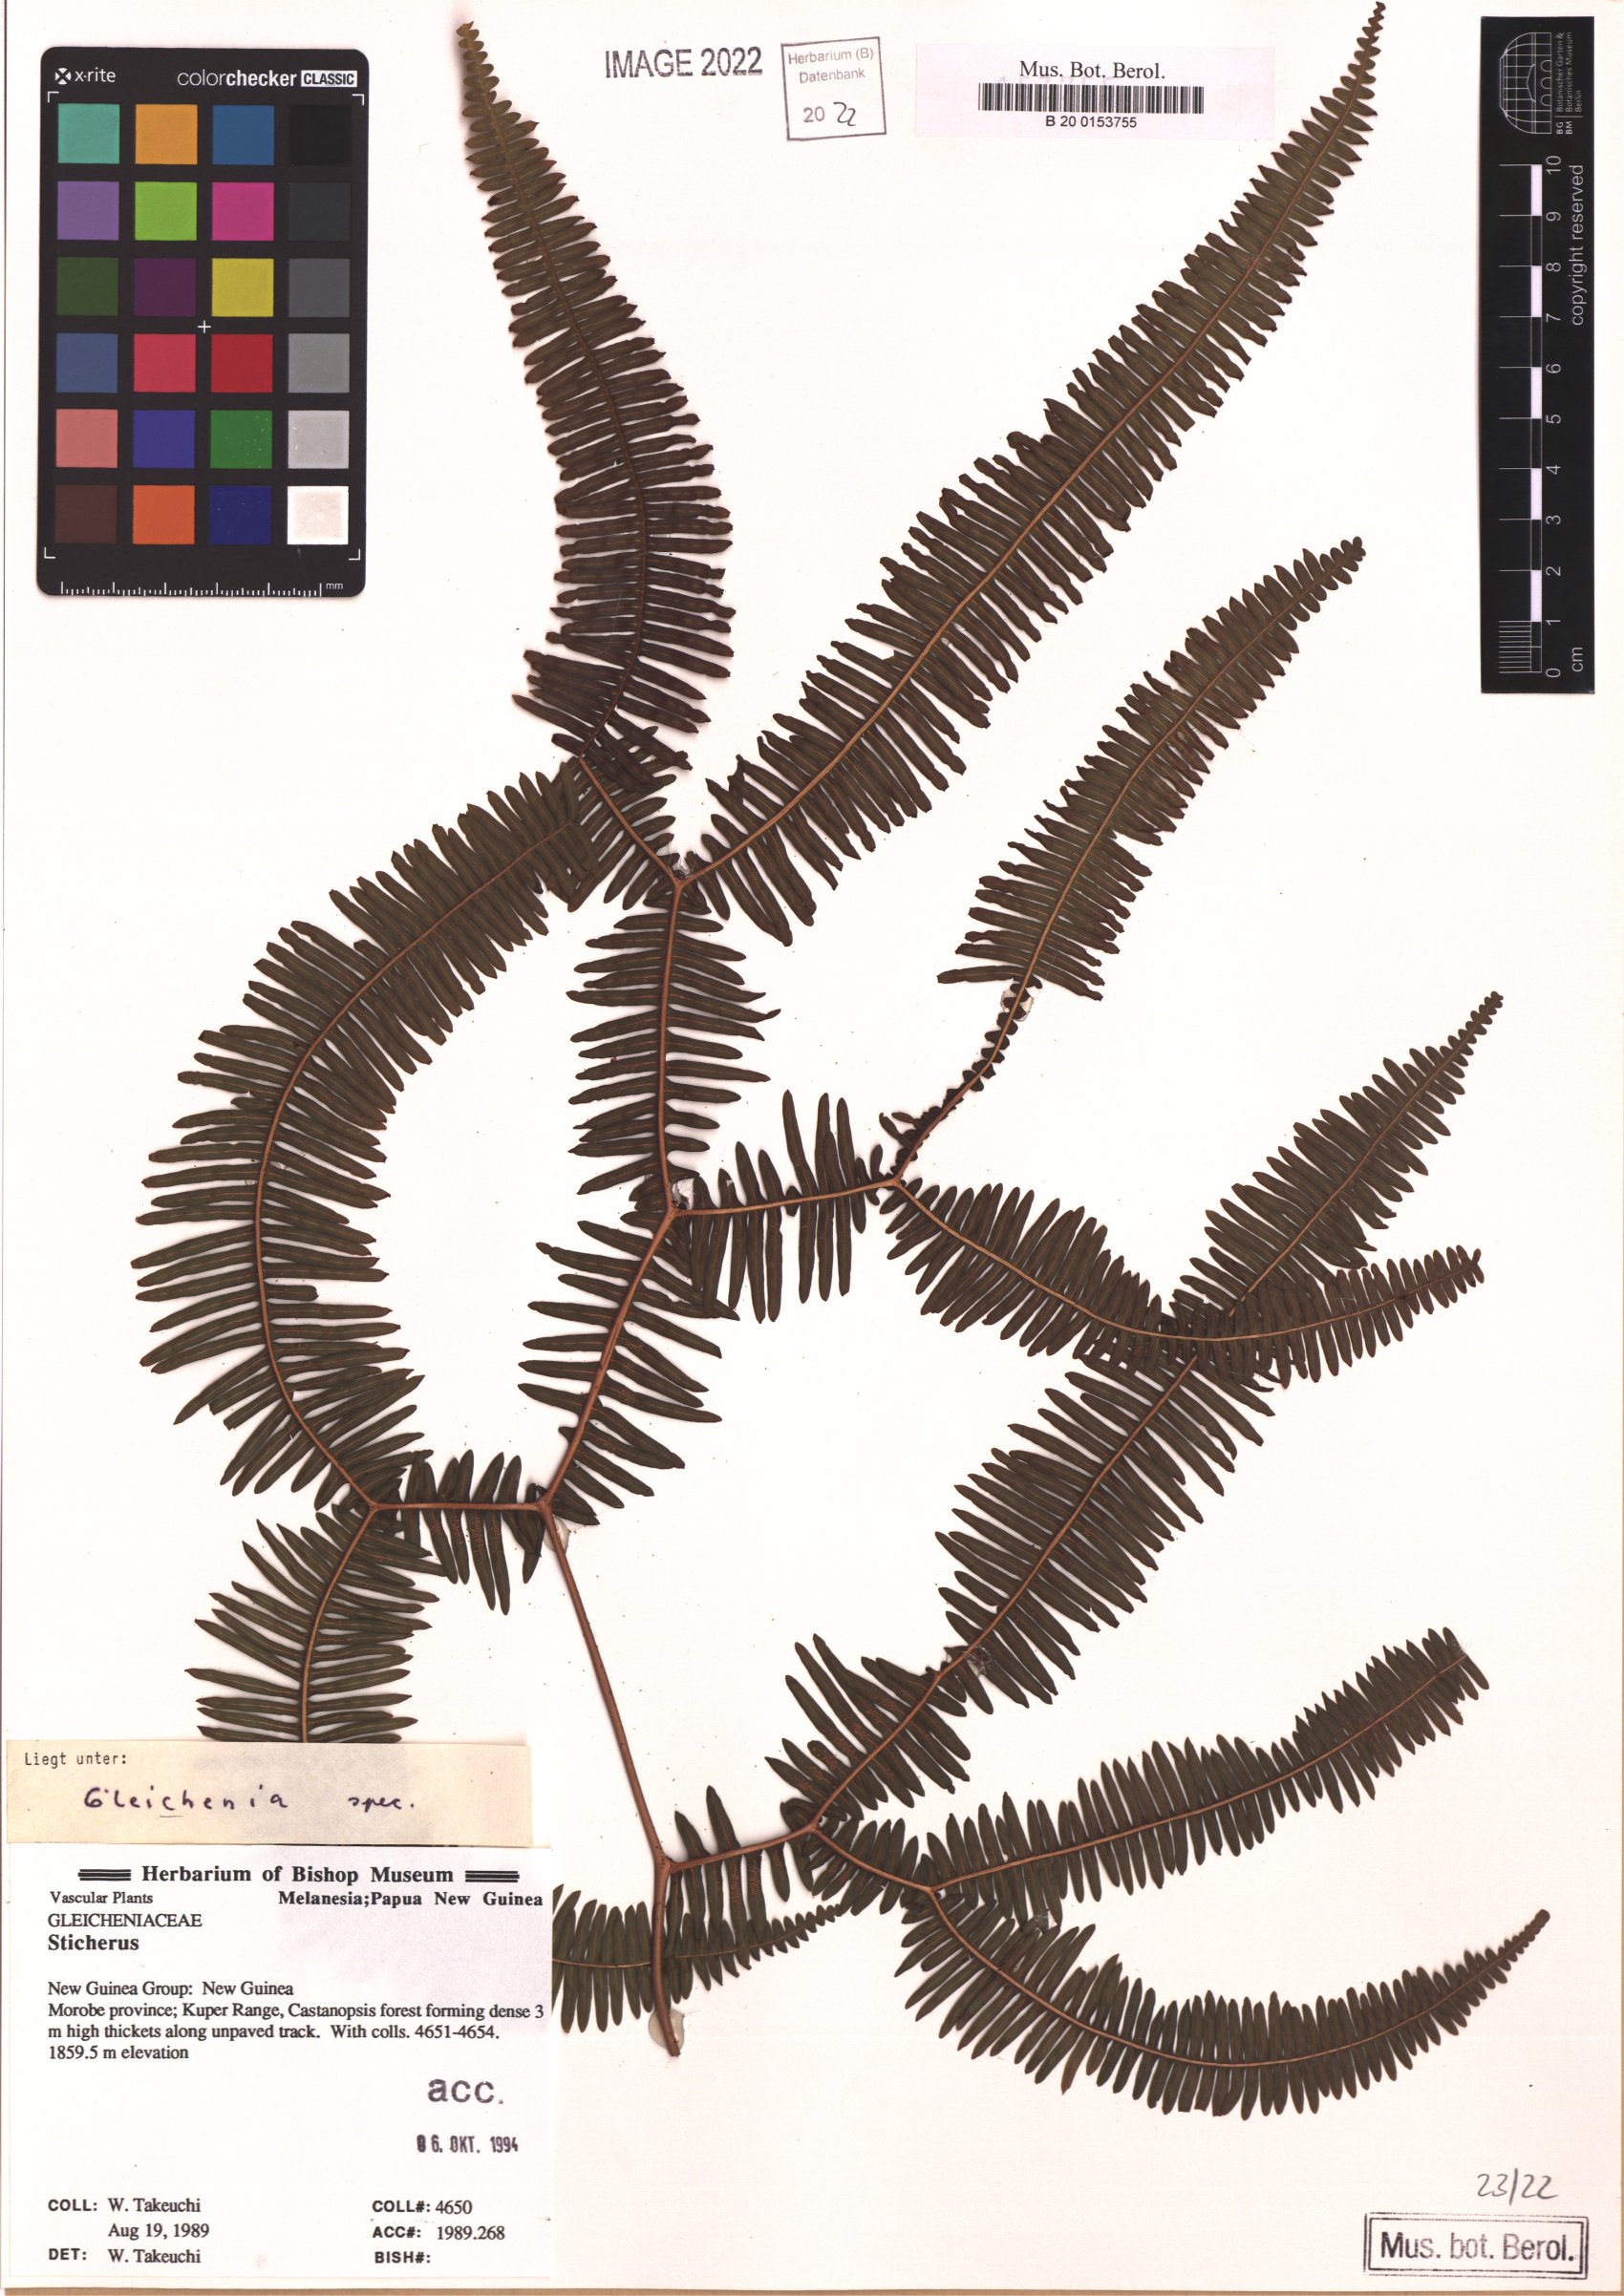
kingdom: Plantae
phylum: Tracheophyta
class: Polypodiopsida
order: Gleicheniales
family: Gleicheniaceae
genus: Gleichenia
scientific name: Gleichenia
